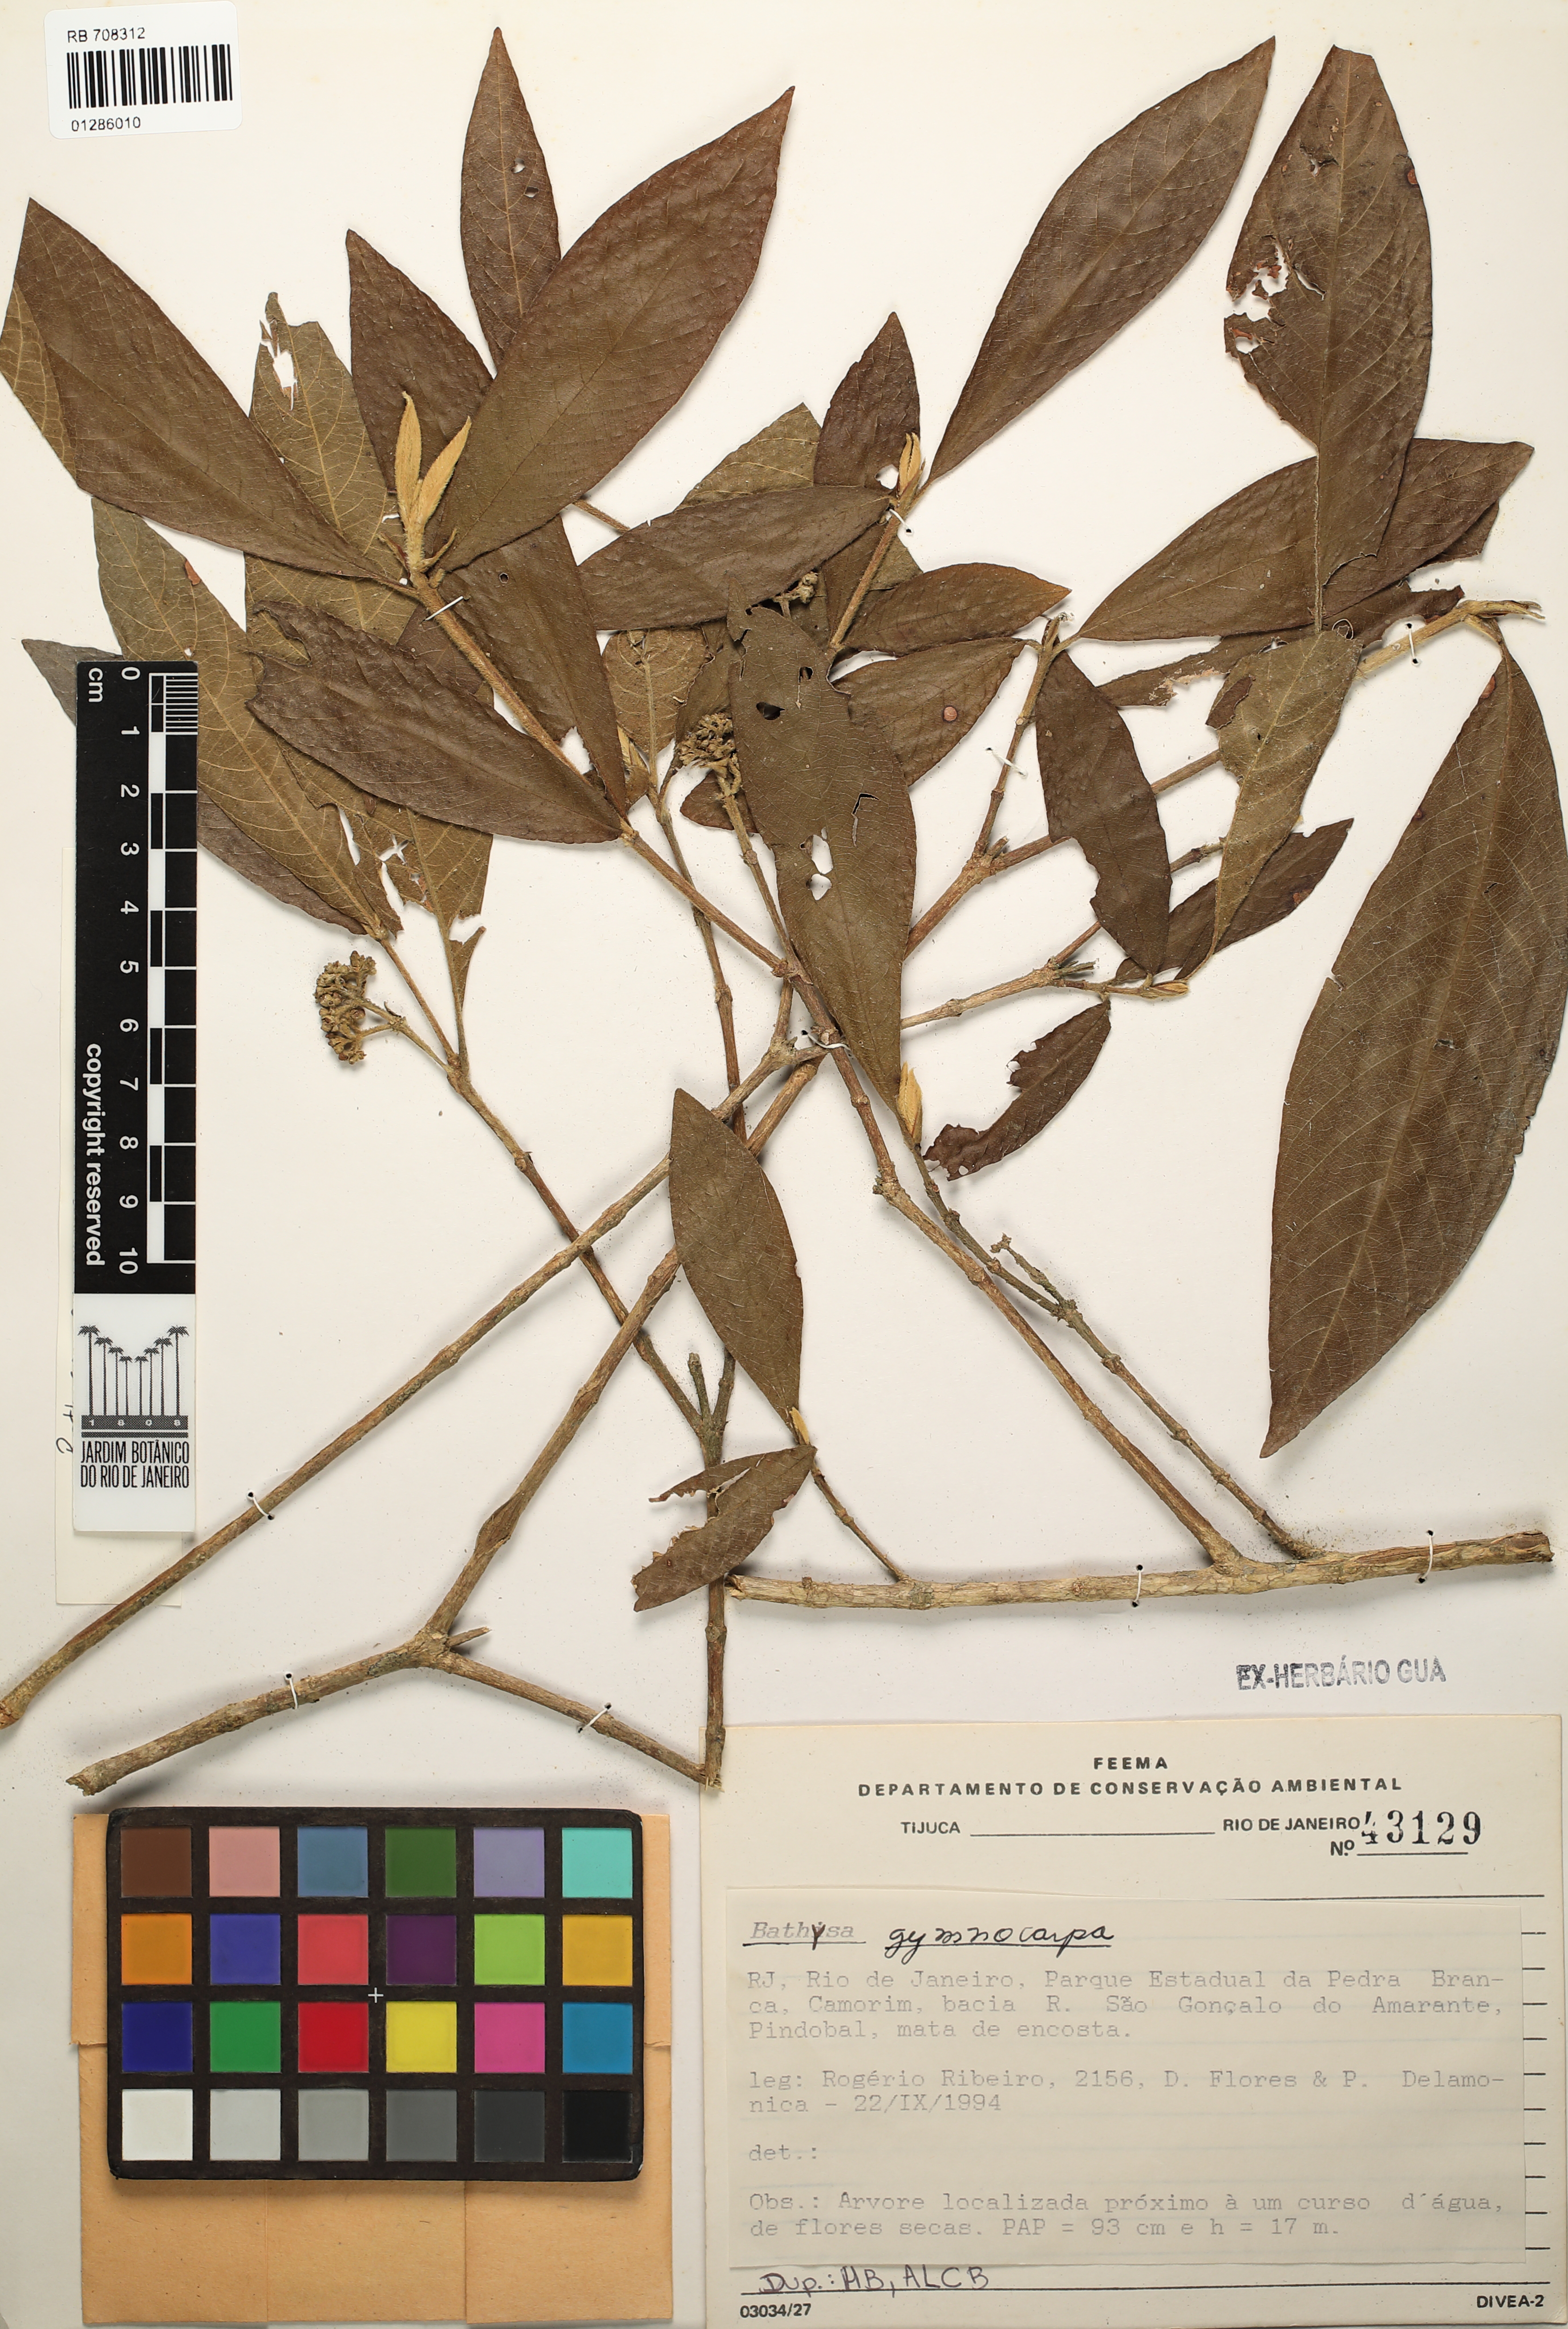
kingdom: Plantae
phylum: Tracheophyta
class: Magnoliopsida
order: Gentianales
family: Rubiaceae
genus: Bathysa
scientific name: Bathysa gymnocarpa
